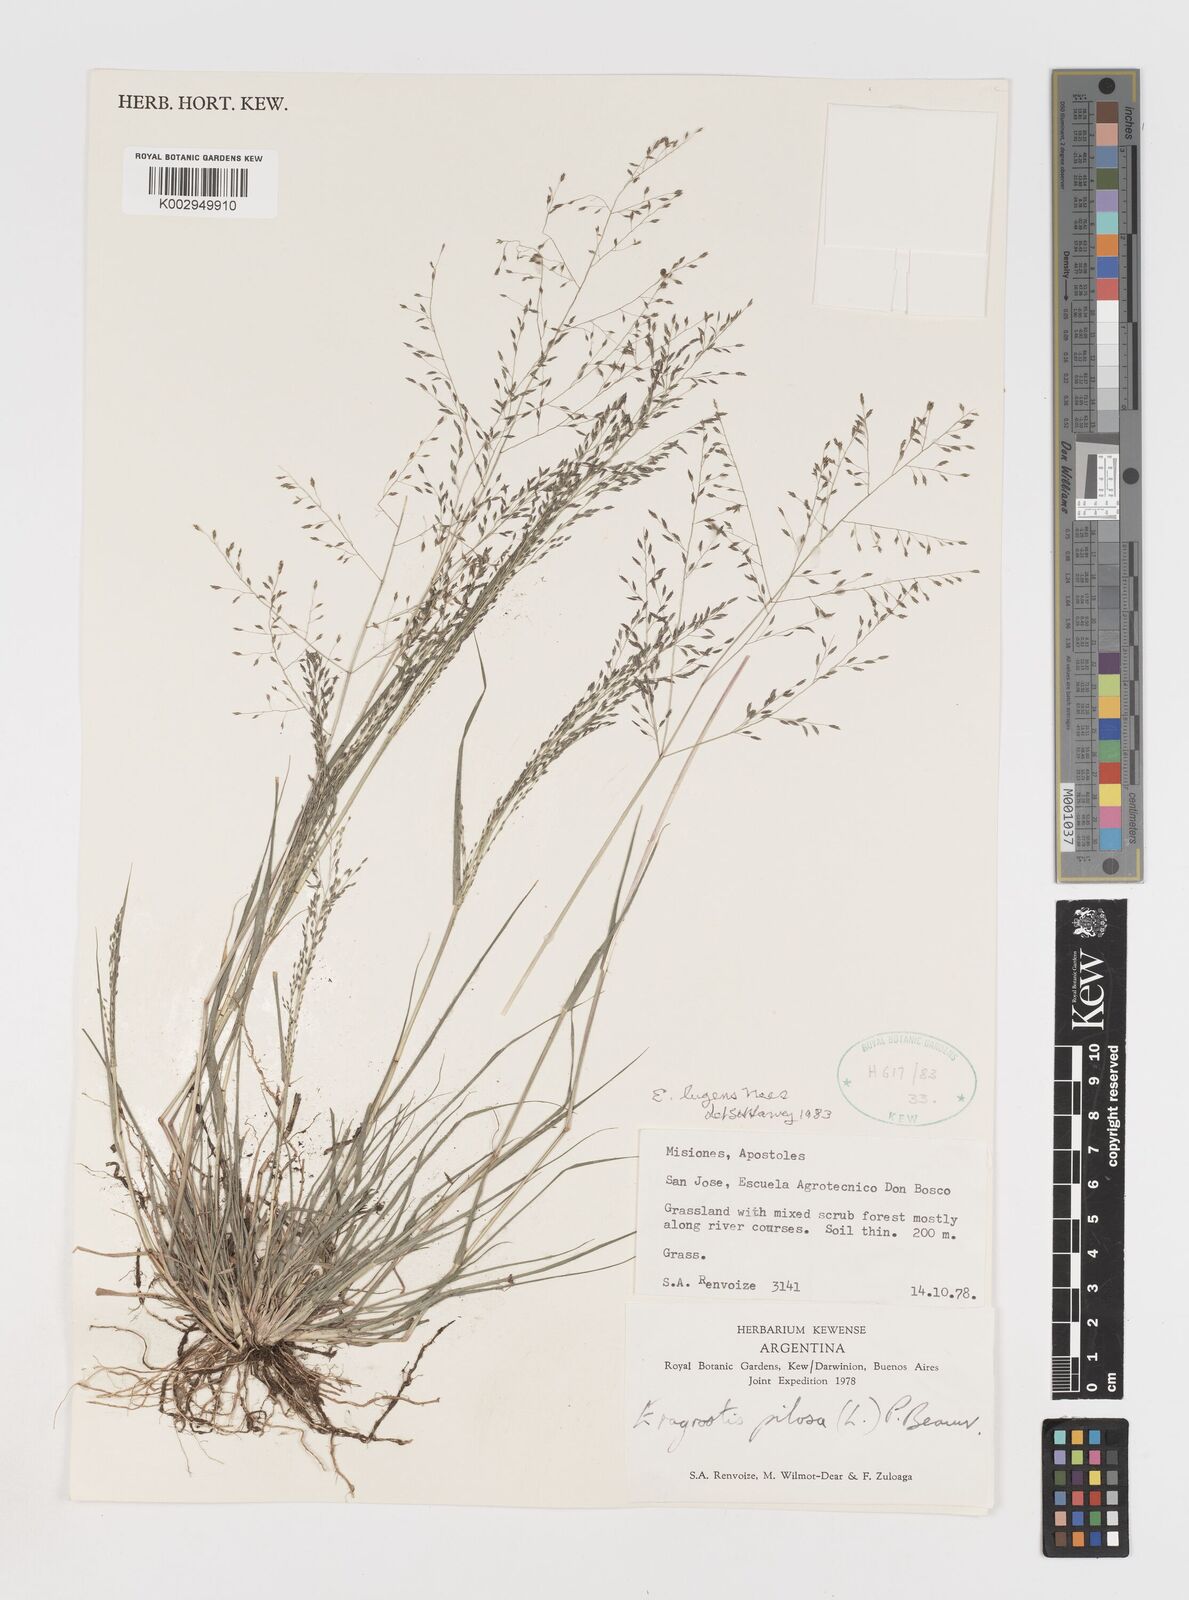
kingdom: Plantae
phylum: Tracheophyta
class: Liliopsida
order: Poales
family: Poaceae
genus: Eragrostis
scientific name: Eragrostis lugens
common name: Mourning love grass
